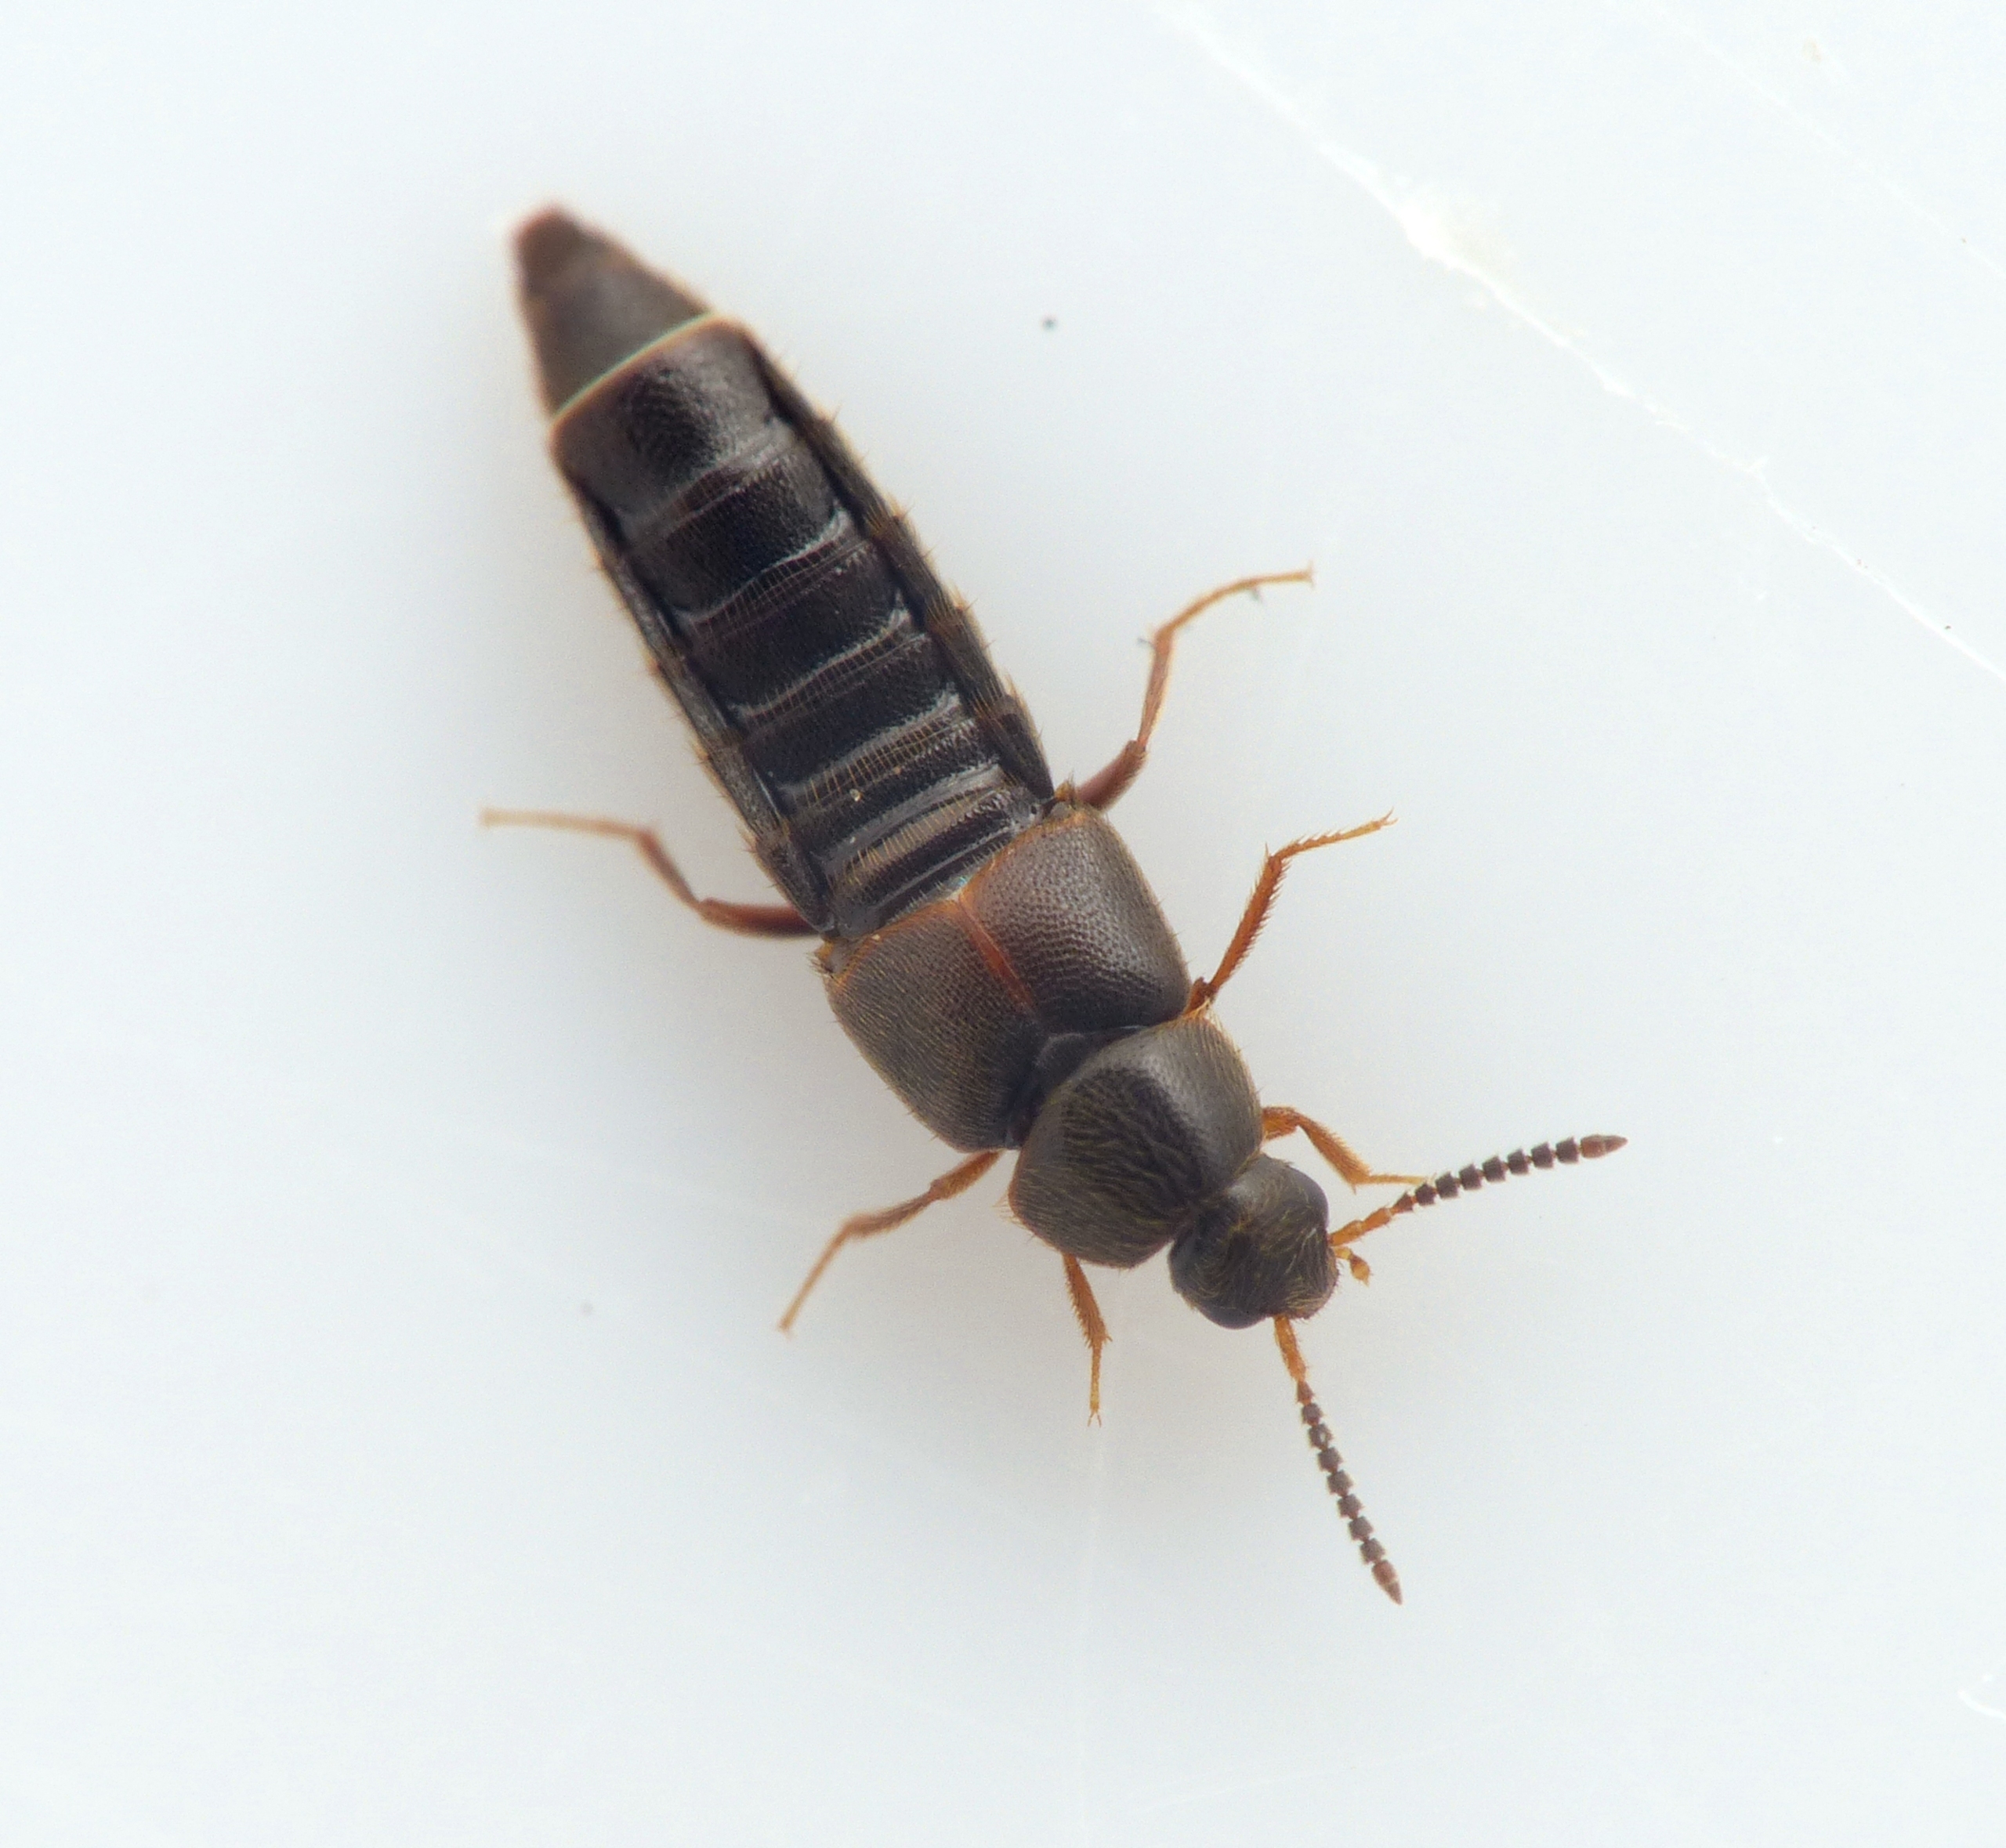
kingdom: Animalia
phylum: Arthropoda
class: Insecta
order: Coleoptera
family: Staphylinidae
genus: Haploglossa
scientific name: Haploglossa villosula
